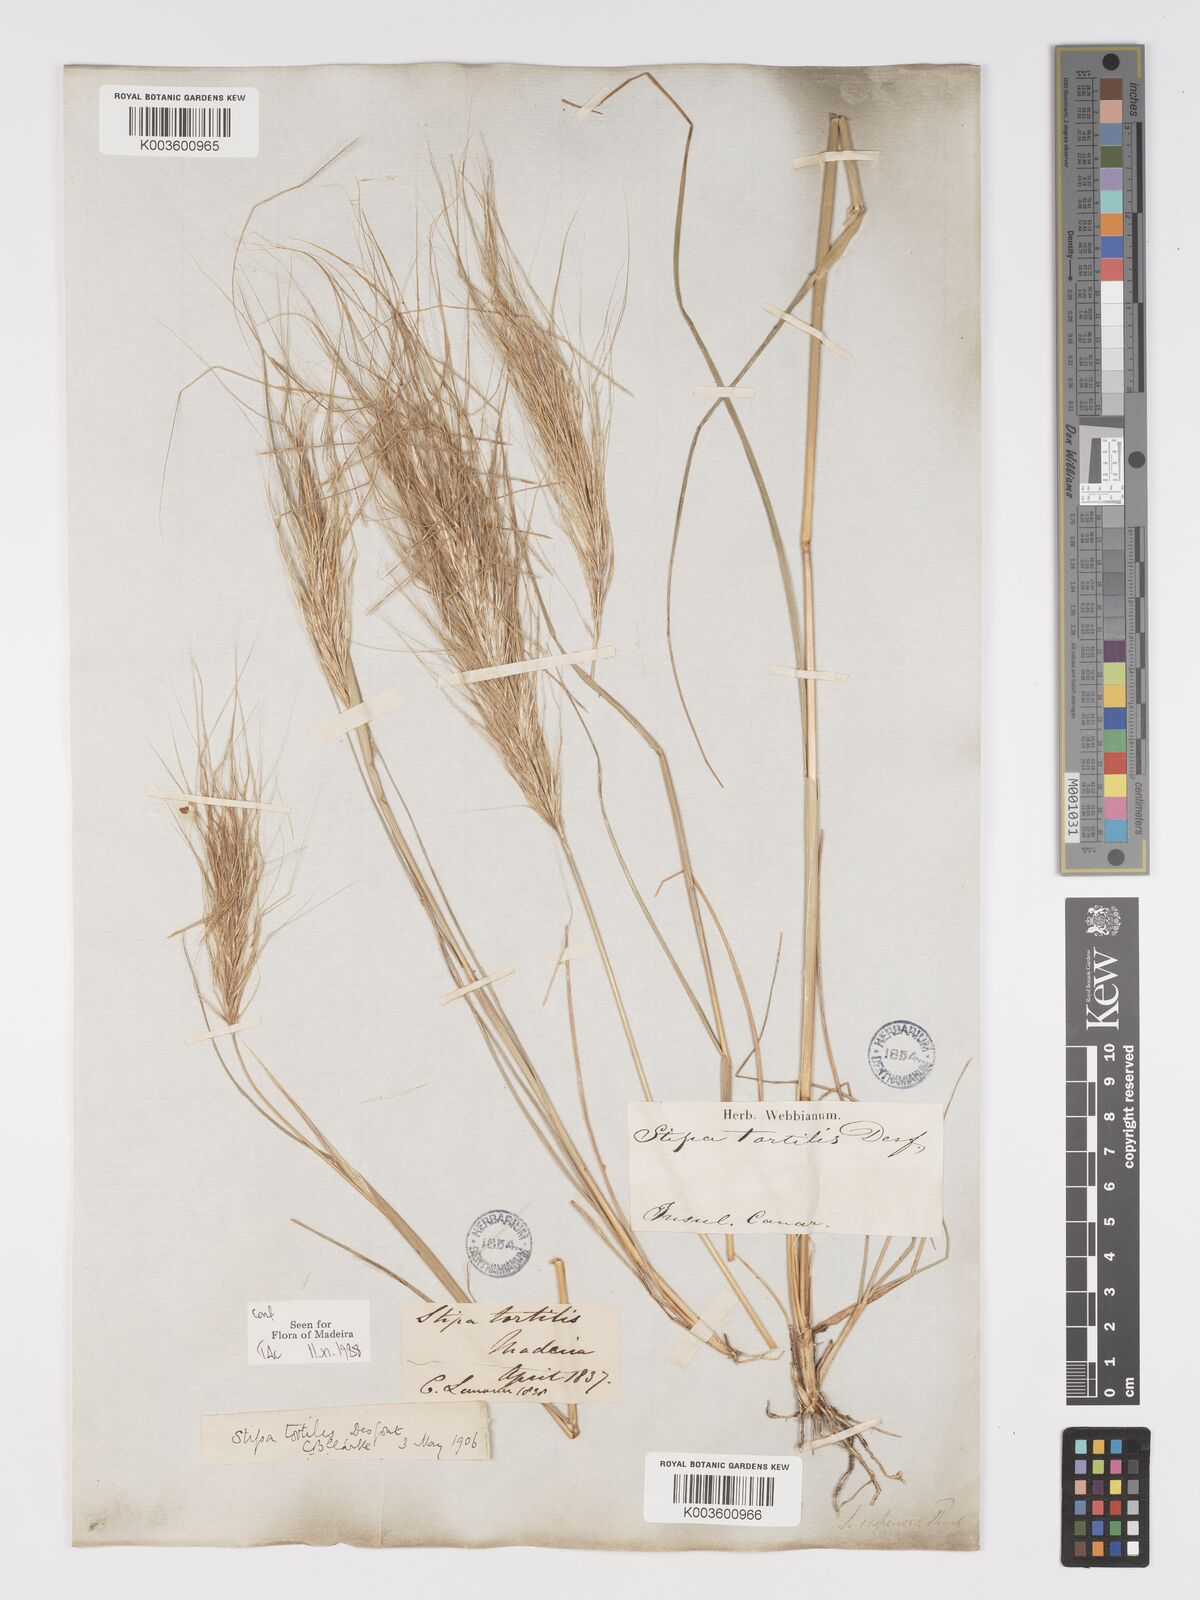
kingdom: Plantae
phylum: Tracheophyta
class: Liliopsida
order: Poales
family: Poaceae
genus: Stipellula
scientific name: Stipellula capensis
